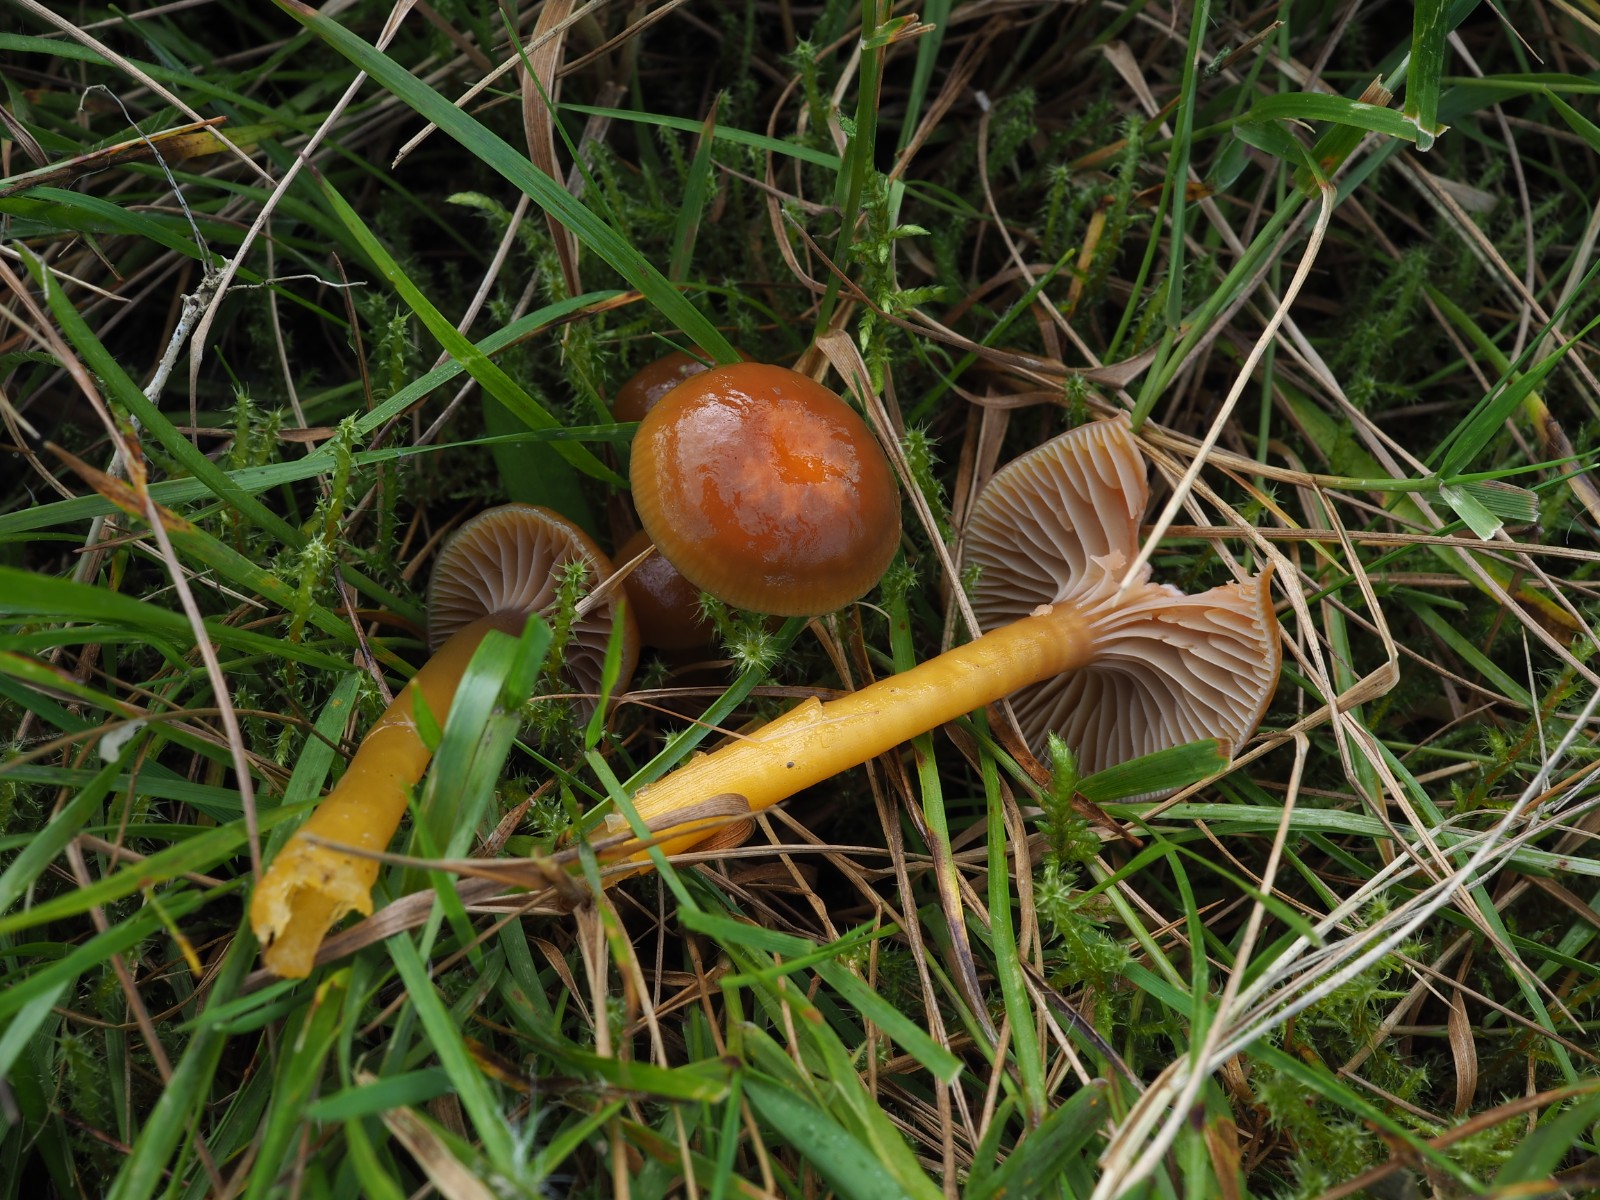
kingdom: Fungi
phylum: Basidiomycota
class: Agaricomycetes
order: Agaricales
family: Hygrophoraceae
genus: Gliophorus
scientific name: Gliophorus laetus
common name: brusk-vokshat
